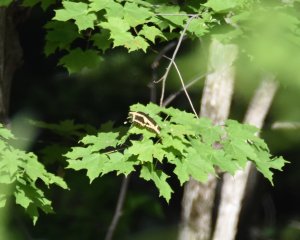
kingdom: Animalia
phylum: Arthropoda
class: Insecta
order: Lepidoptera
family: Papilionidae
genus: Papilio
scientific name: Papilio cresphontes
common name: Eastern Giant Swallowtail
